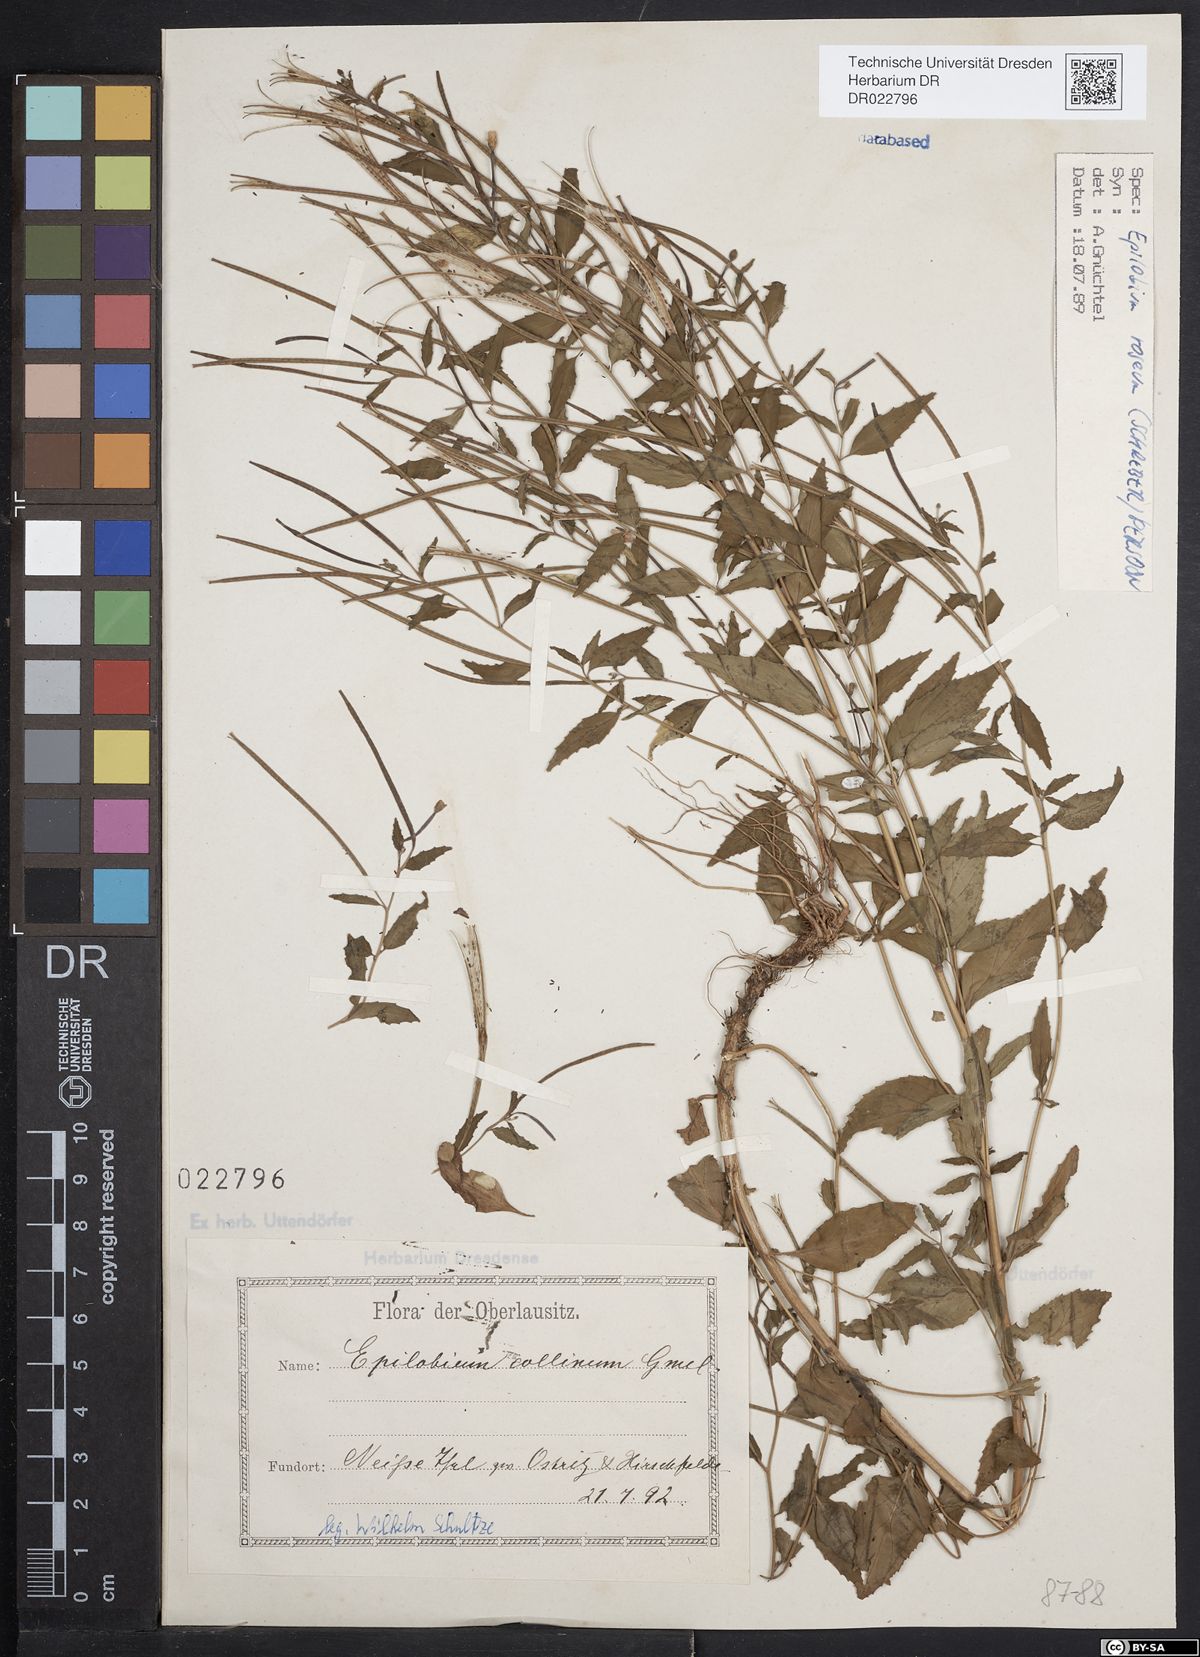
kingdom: Plantae
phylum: Tracheophyta
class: Magnoliopsida
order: Myrtales
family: Onagraceae
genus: Epilobium
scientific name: Epilobium roseum
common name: Pale willowherb
